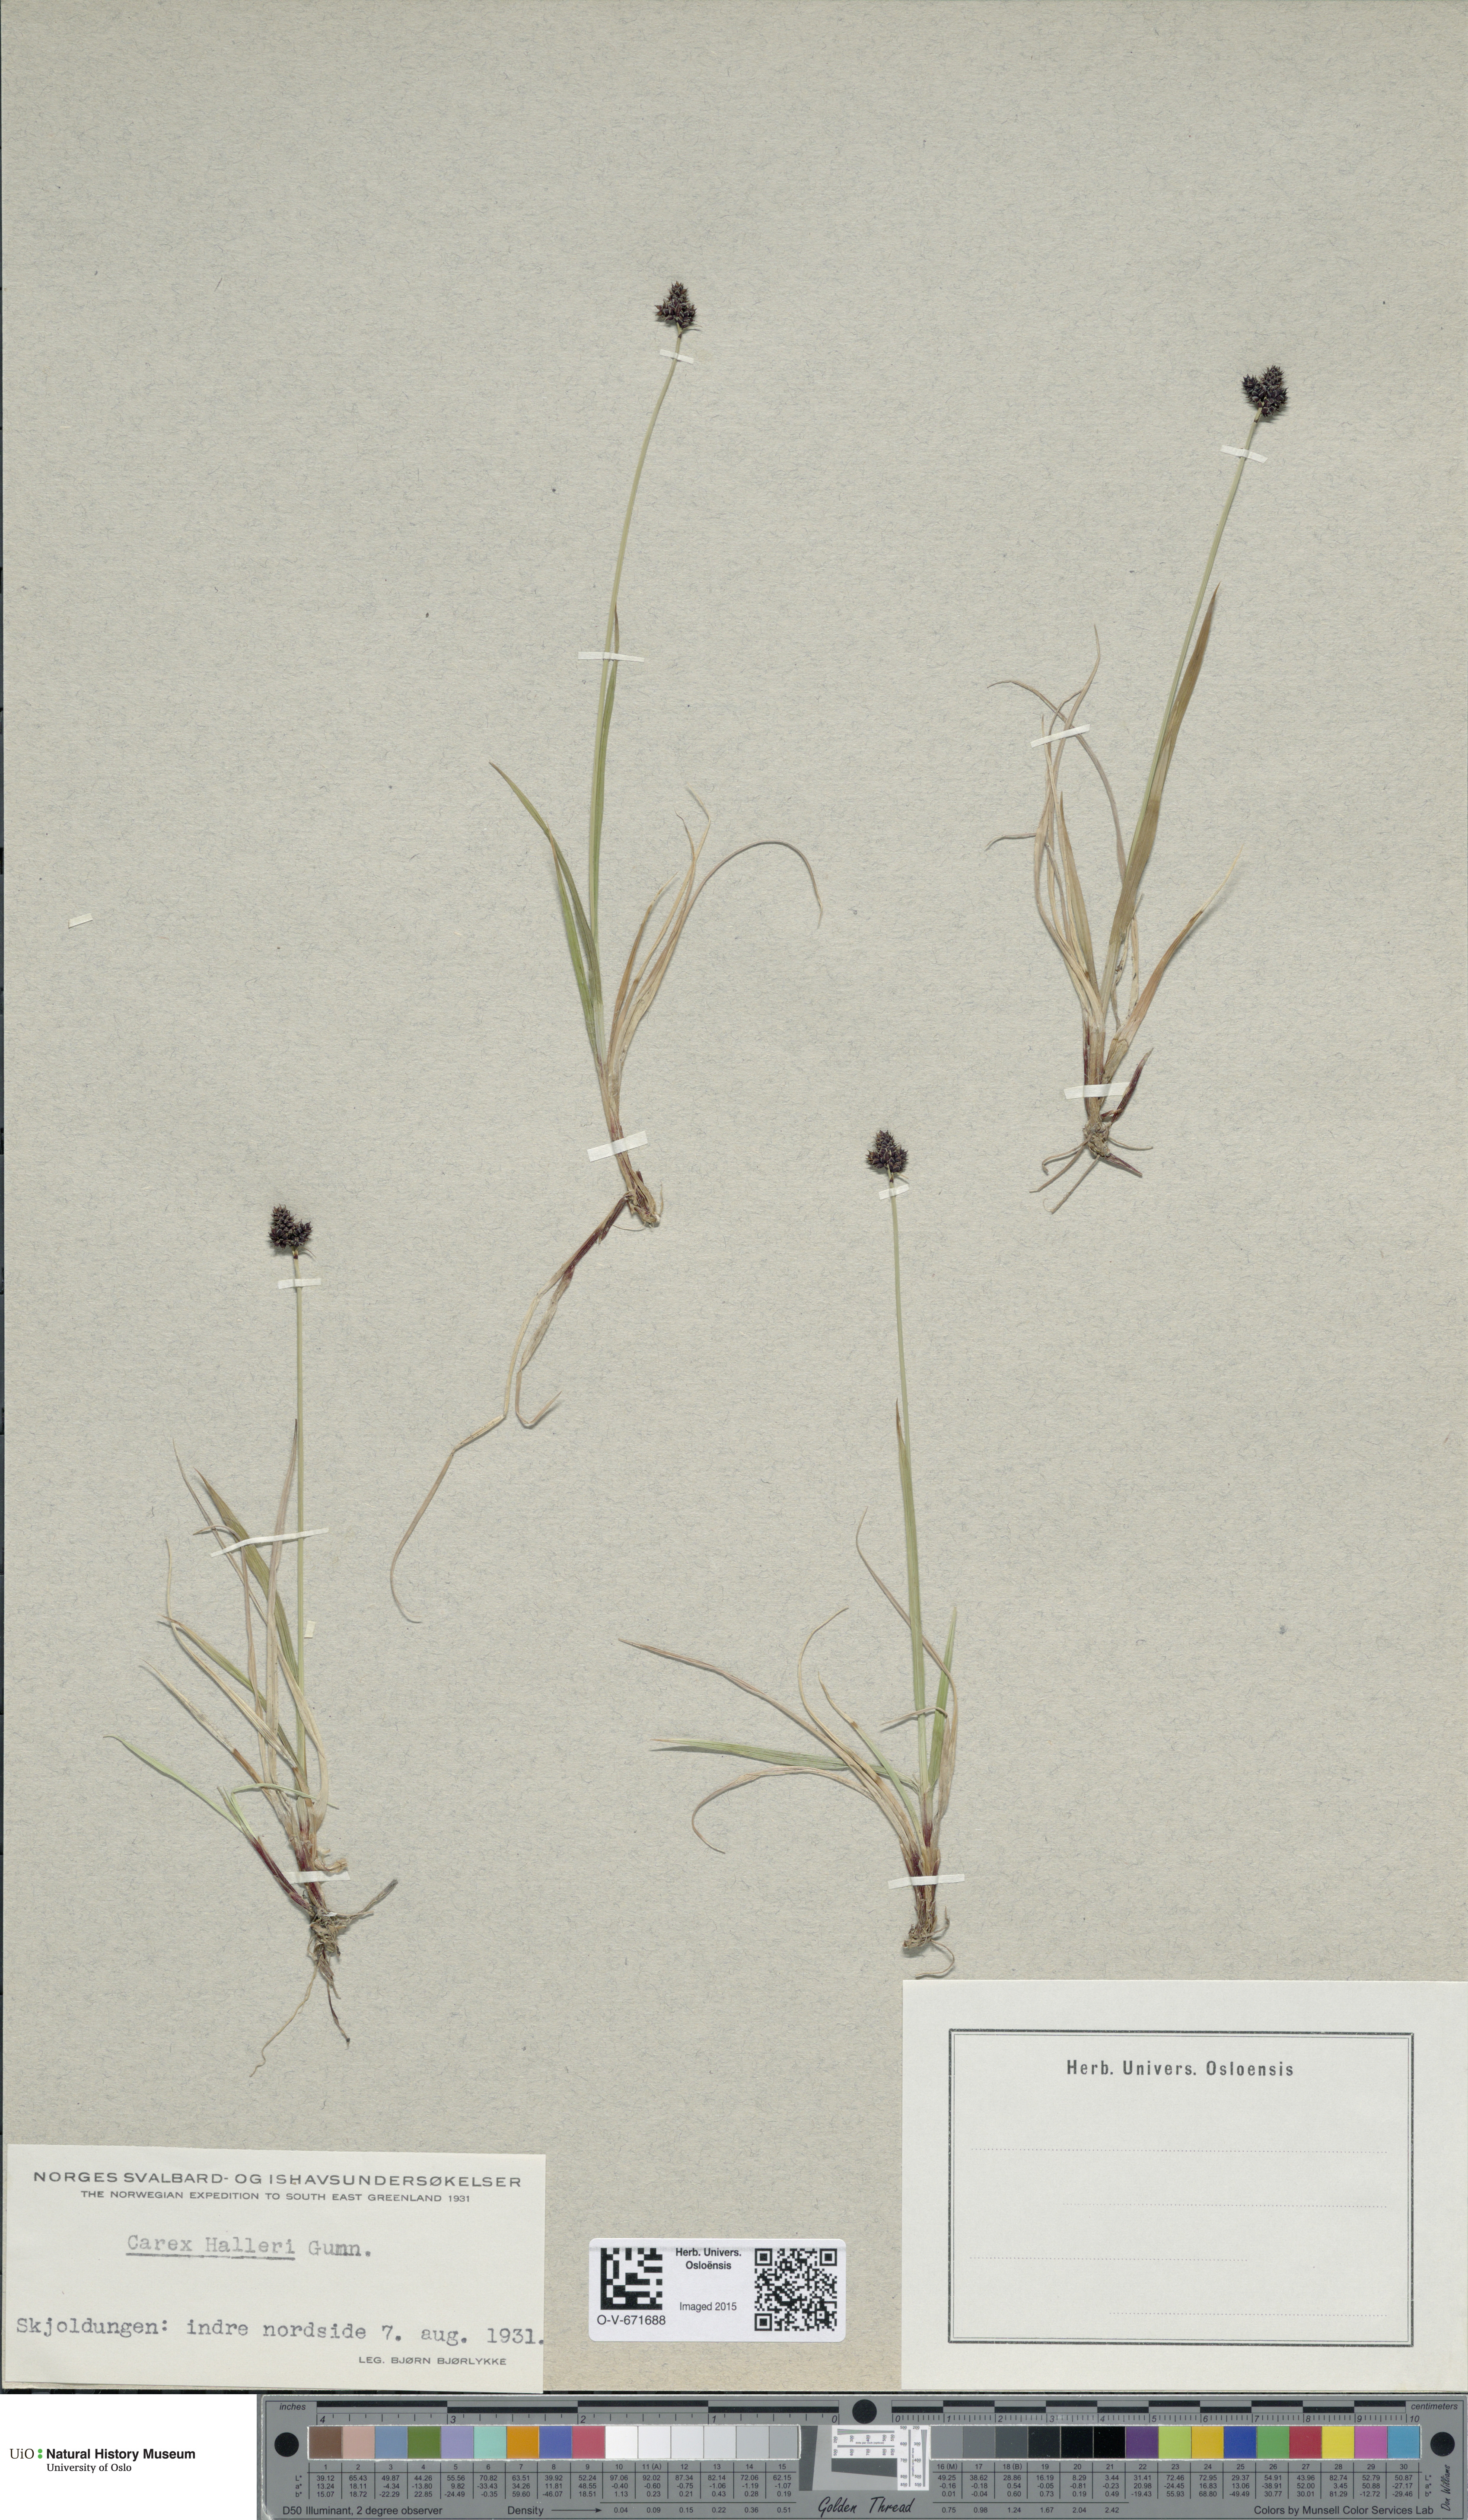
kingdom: Plantae
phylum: Tracheophyta
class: Liliopsida
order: Poales
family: Cyperaceae
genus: Carex
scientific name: Carex norvegica
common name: Close-headed alpine-sedge
